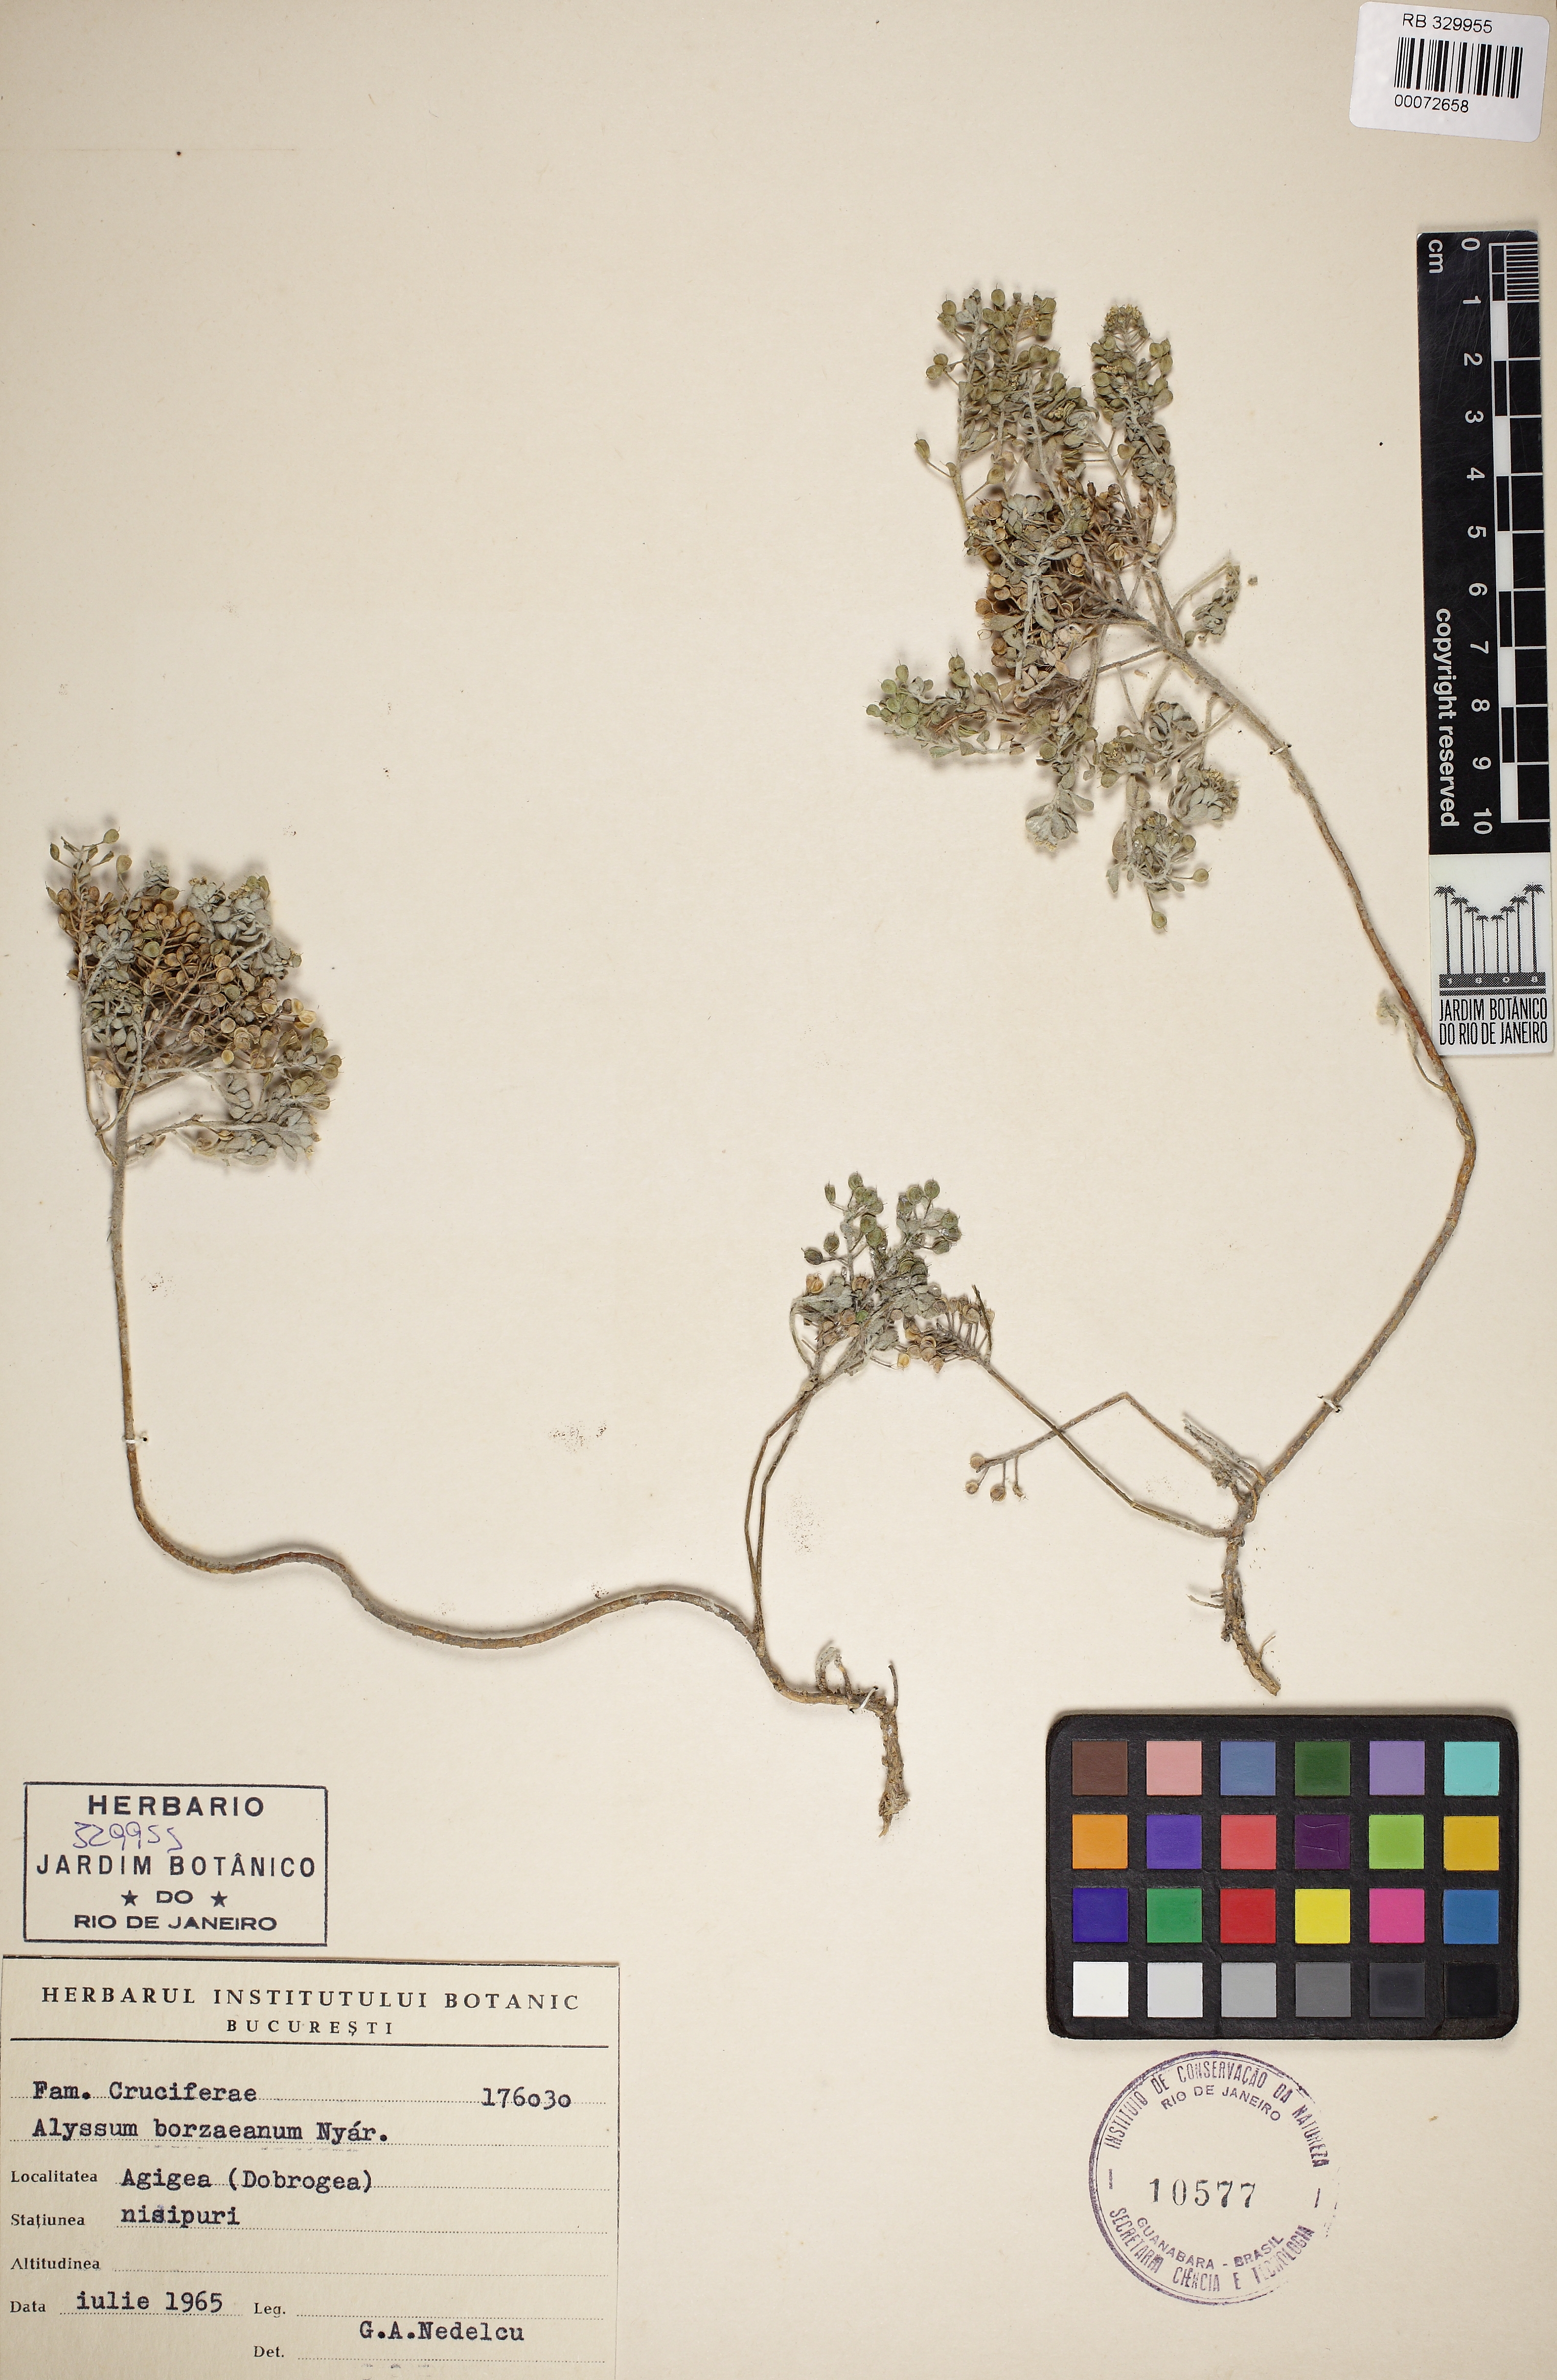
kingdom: Plantae
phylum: Tracheophyta
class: Magnoliopsida
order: Brassicales
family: Brassicaceae
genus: Odontarrhena
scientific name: Odontarrhena borzeana
